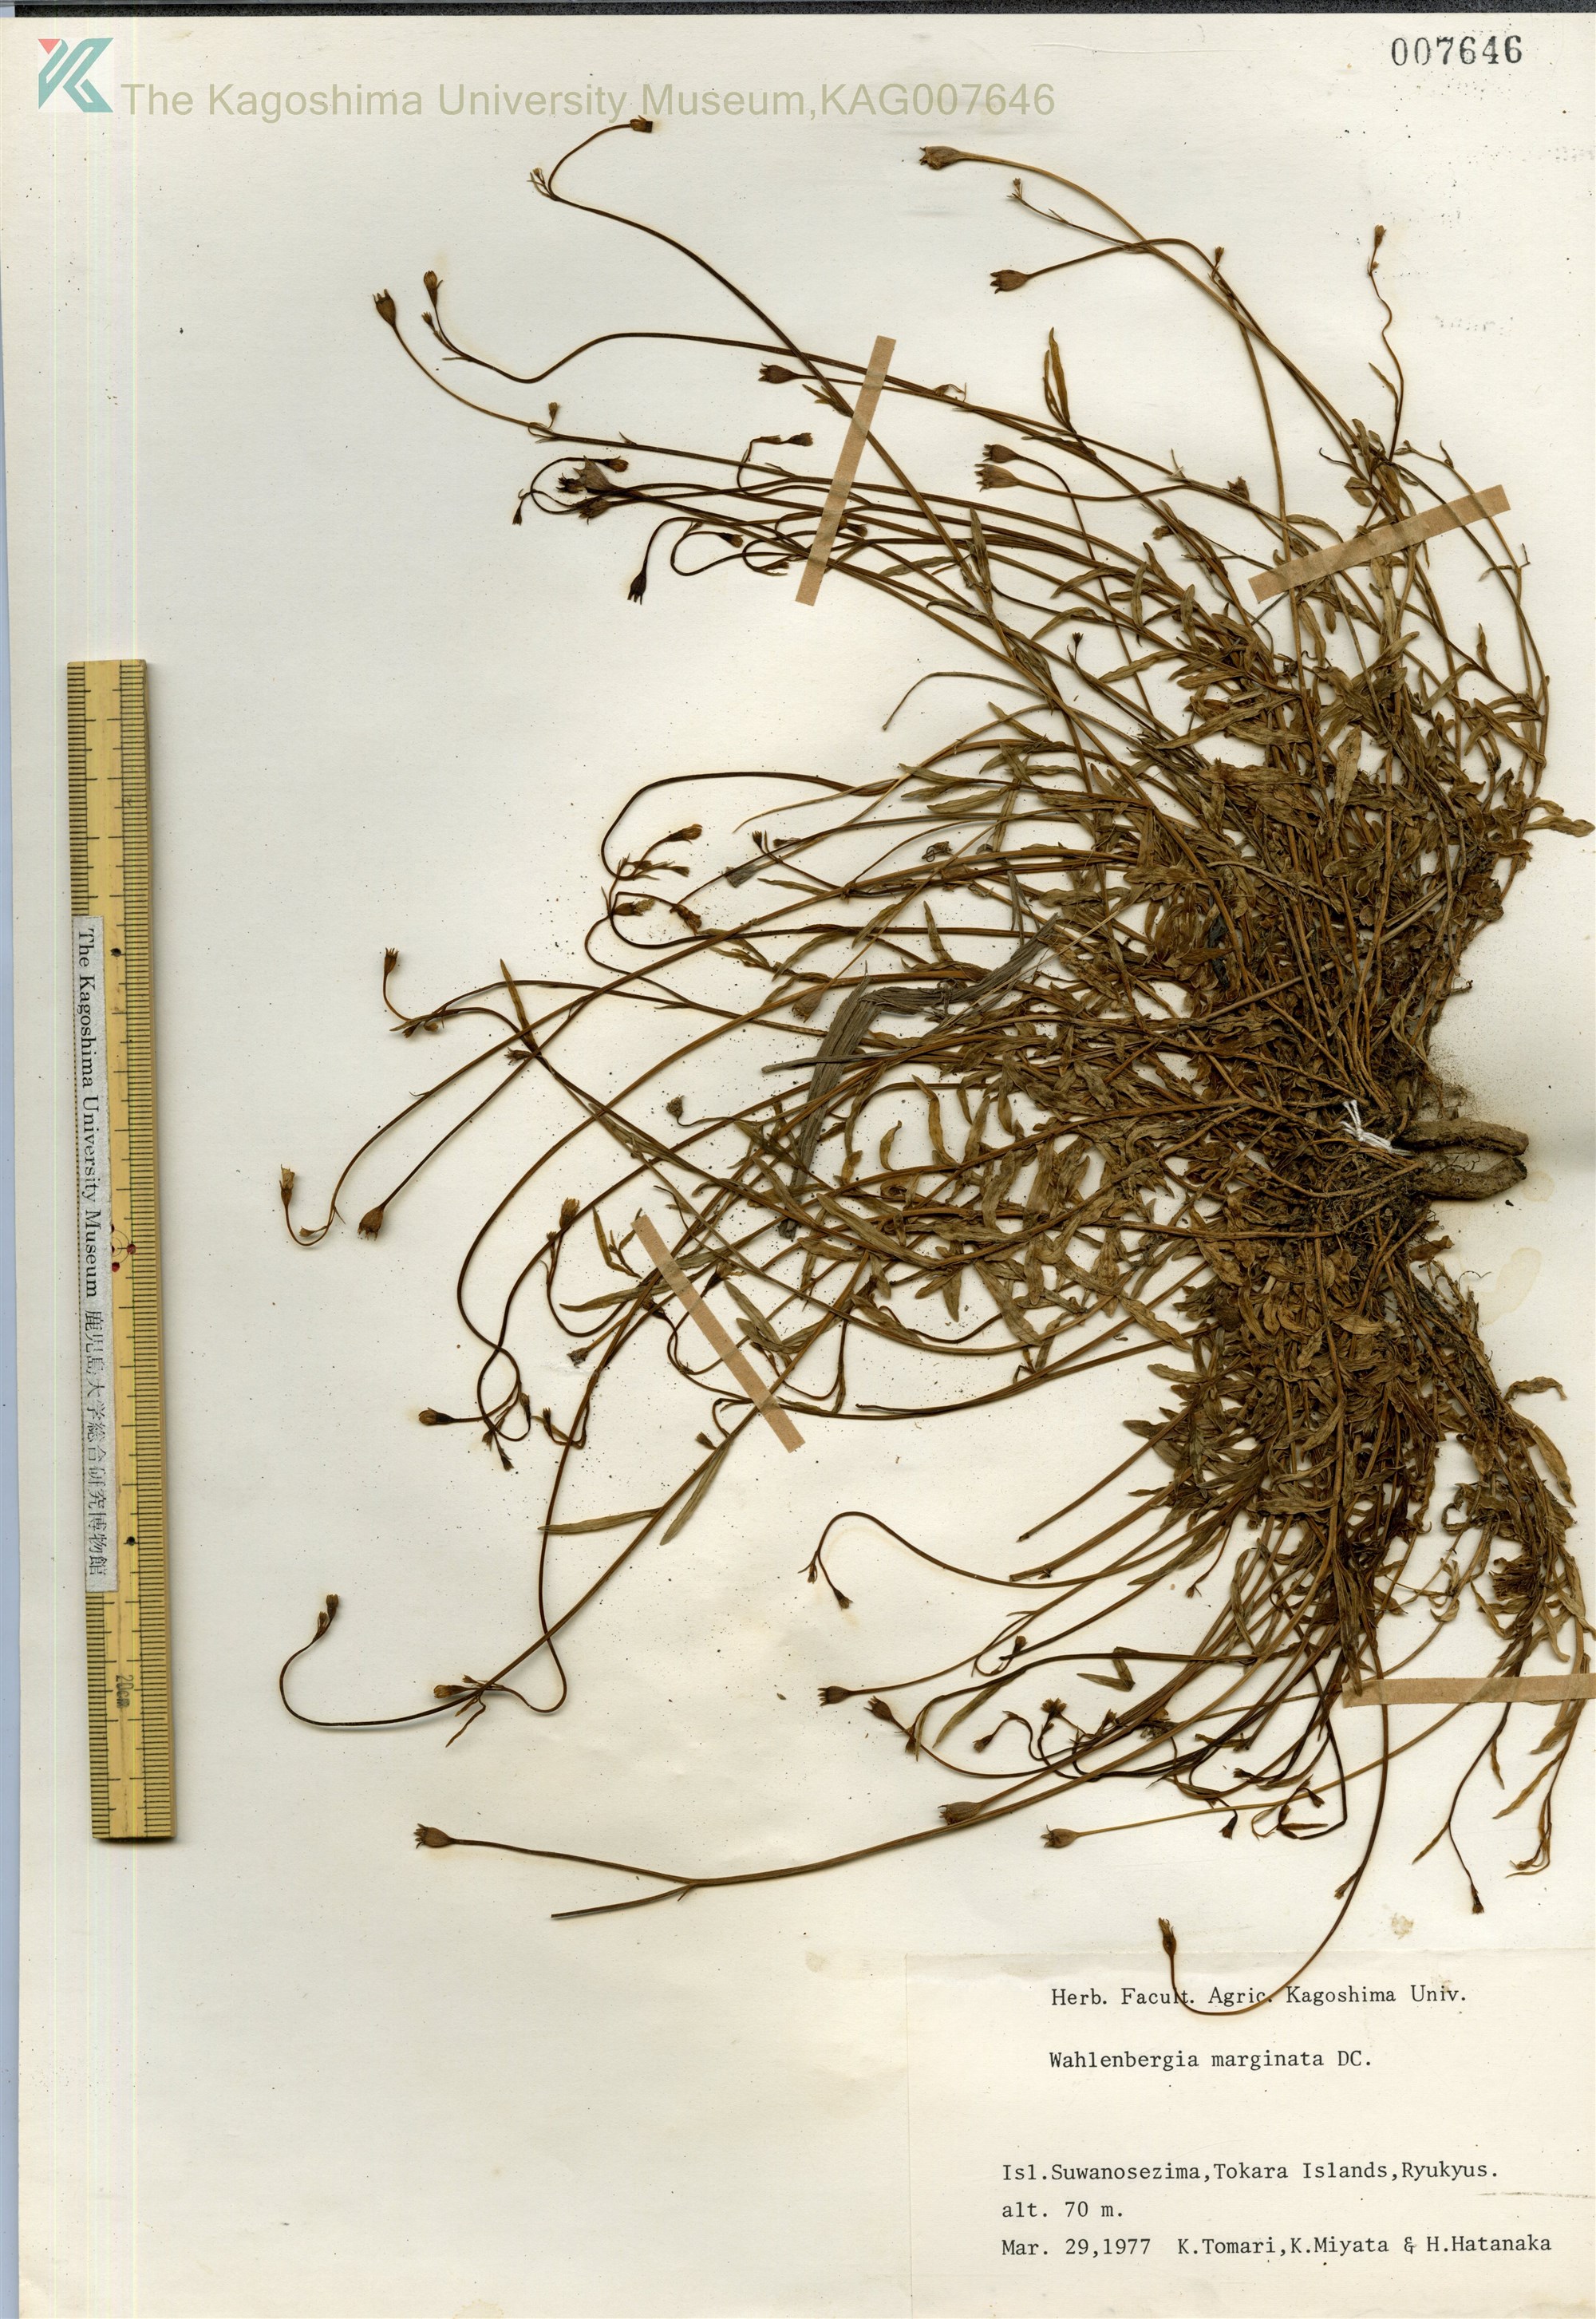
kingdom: Plantae
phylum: Tracheophyta
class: Magnoliopsida
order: Asterales
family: Campanulaceae
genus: Wahlenbergia
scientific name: Wahlenbergia marginata
